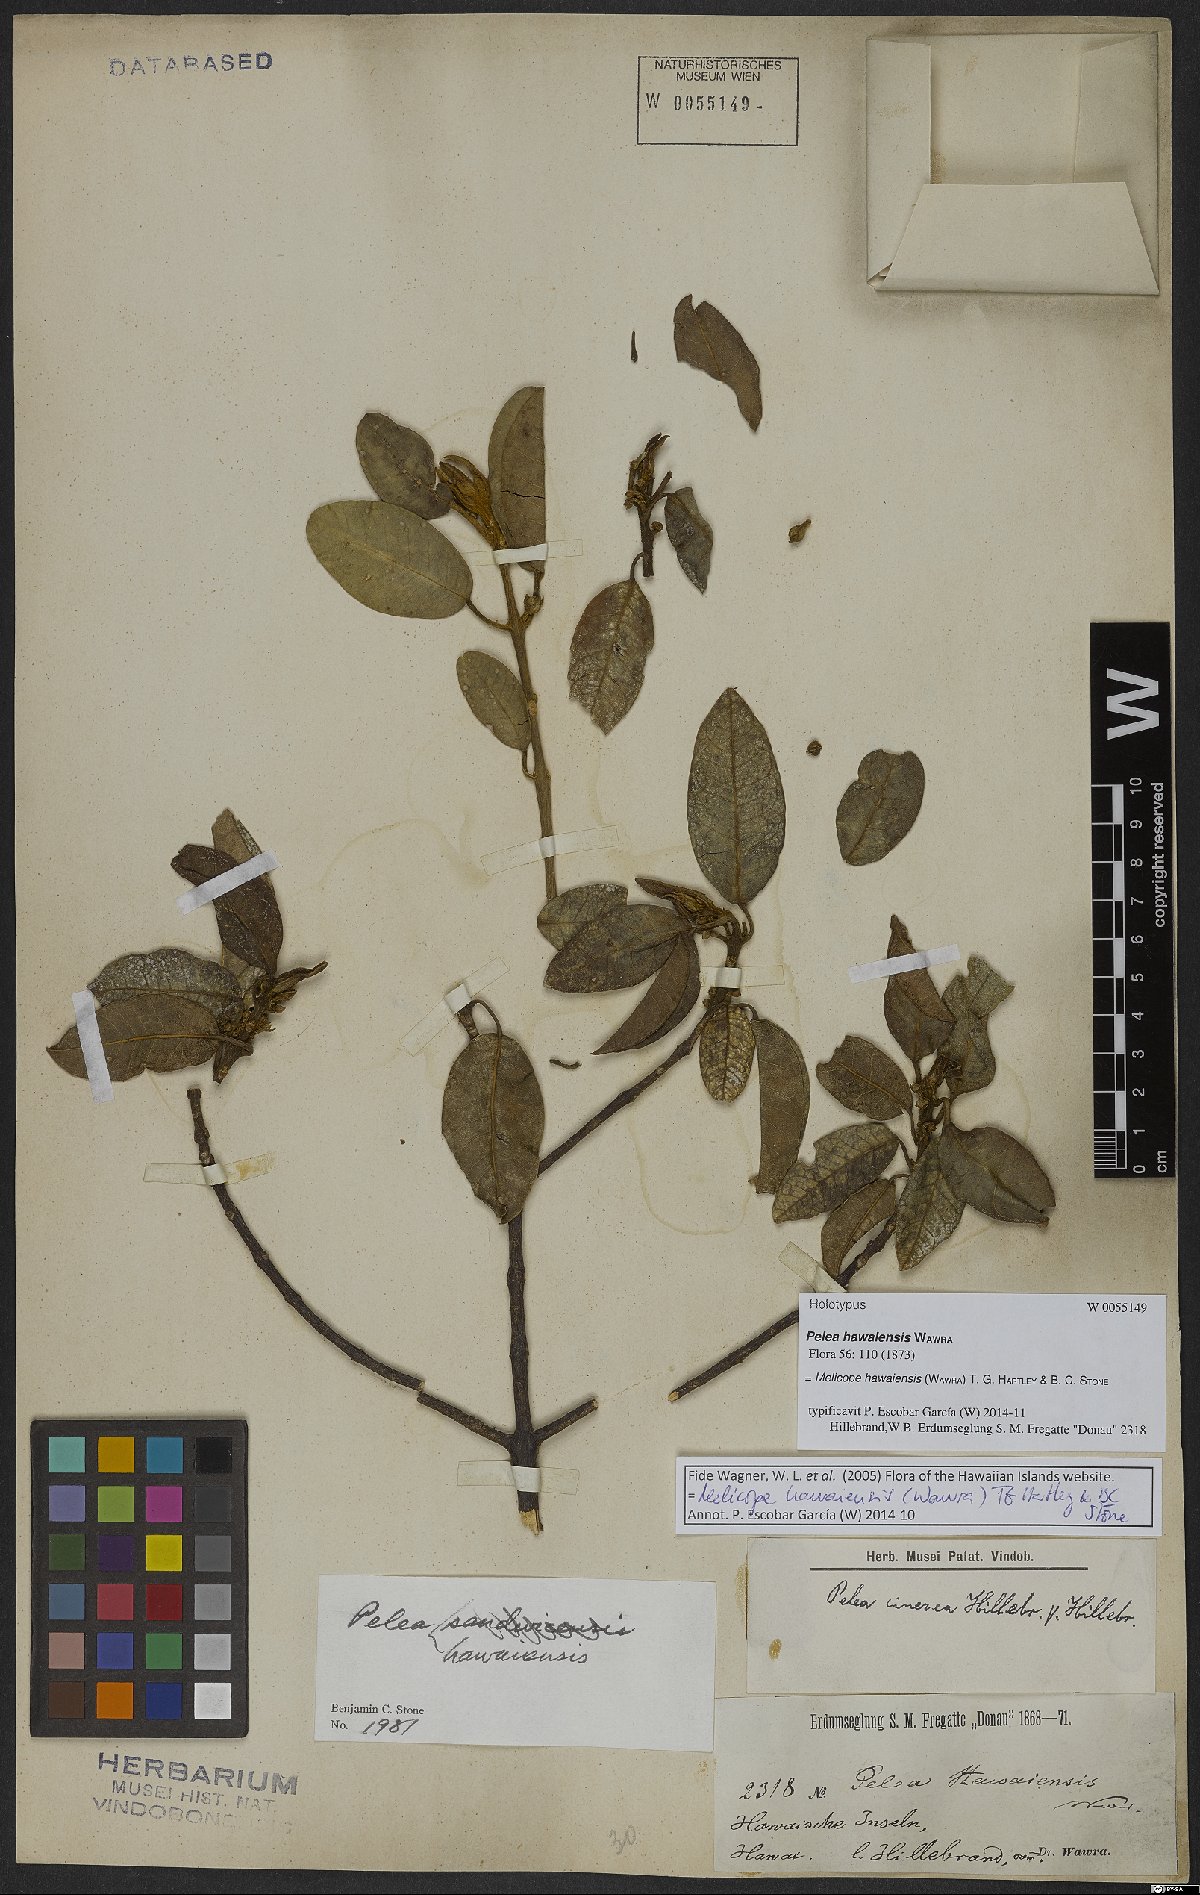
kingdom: Plantae
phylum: Tracheophyta
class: Magnoliopsida
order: Sapindales
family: Rutaceae
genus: Melicope
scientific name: Melicope hawaiensis
